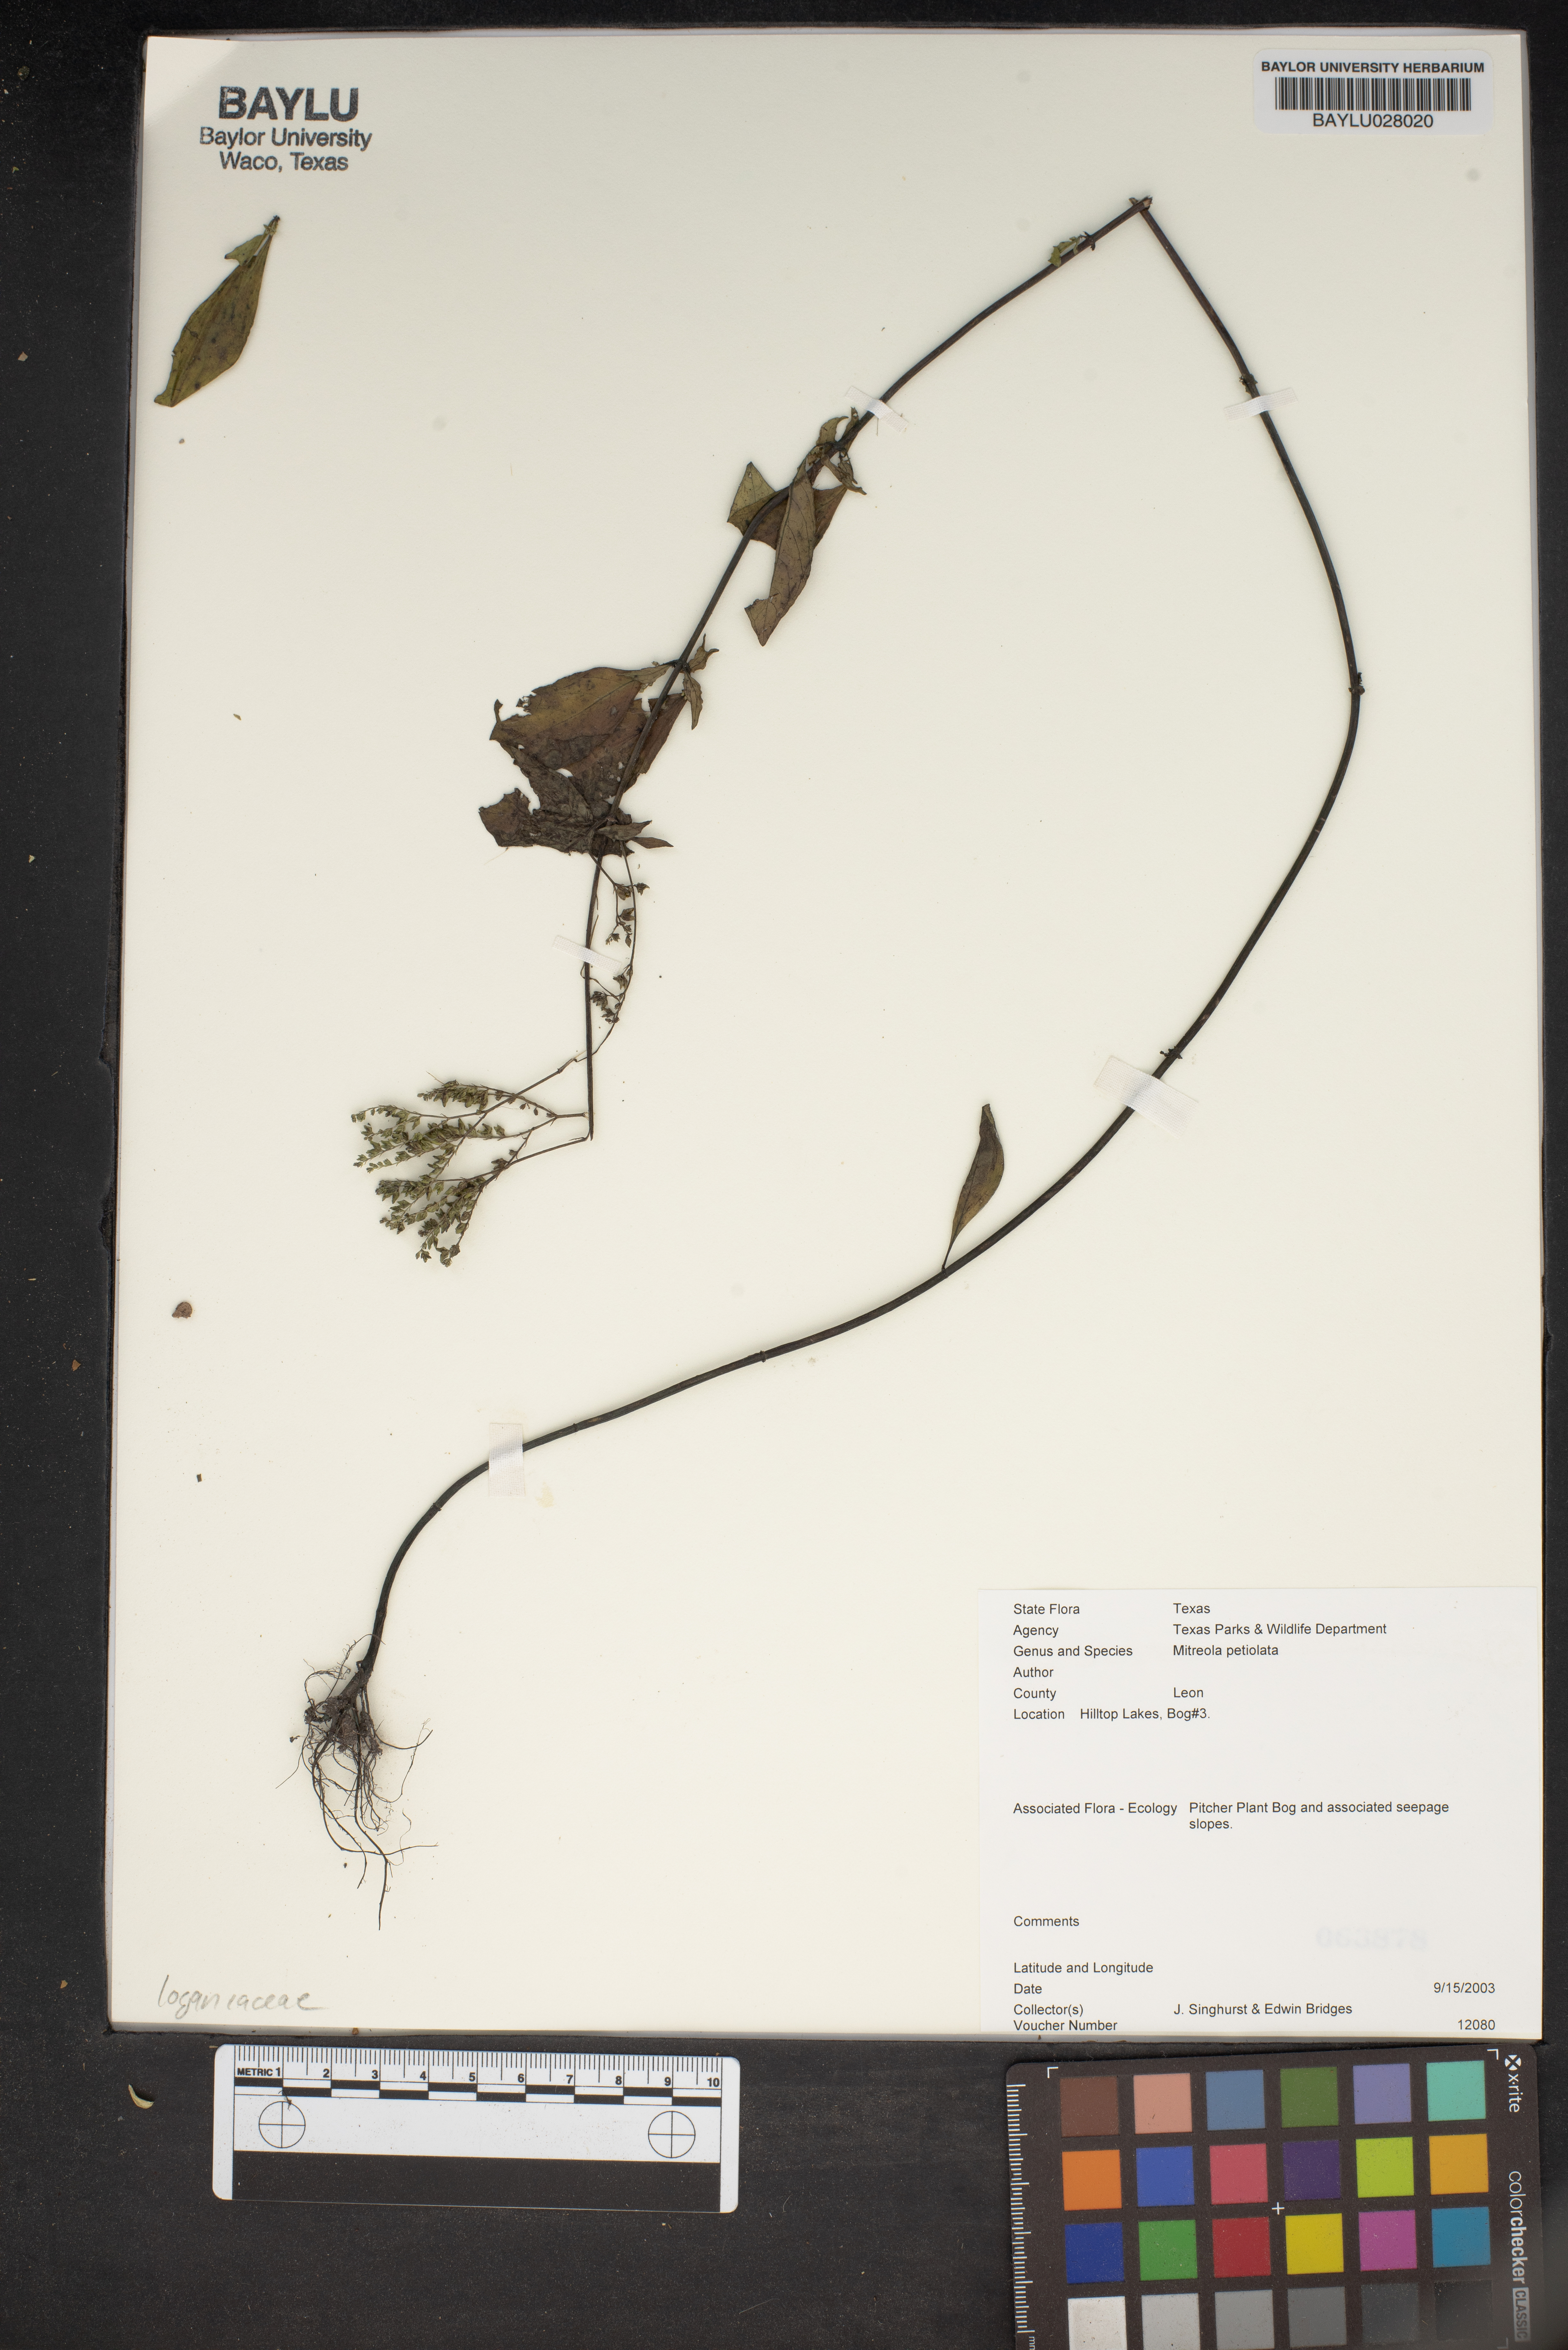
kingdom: Plantae
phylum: Tracheophyta
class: Magnoliopsida
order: Gentianales
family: Loganiaceae
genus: Mitreola
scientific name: Mitreola petiolata
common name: Lax hornpod
